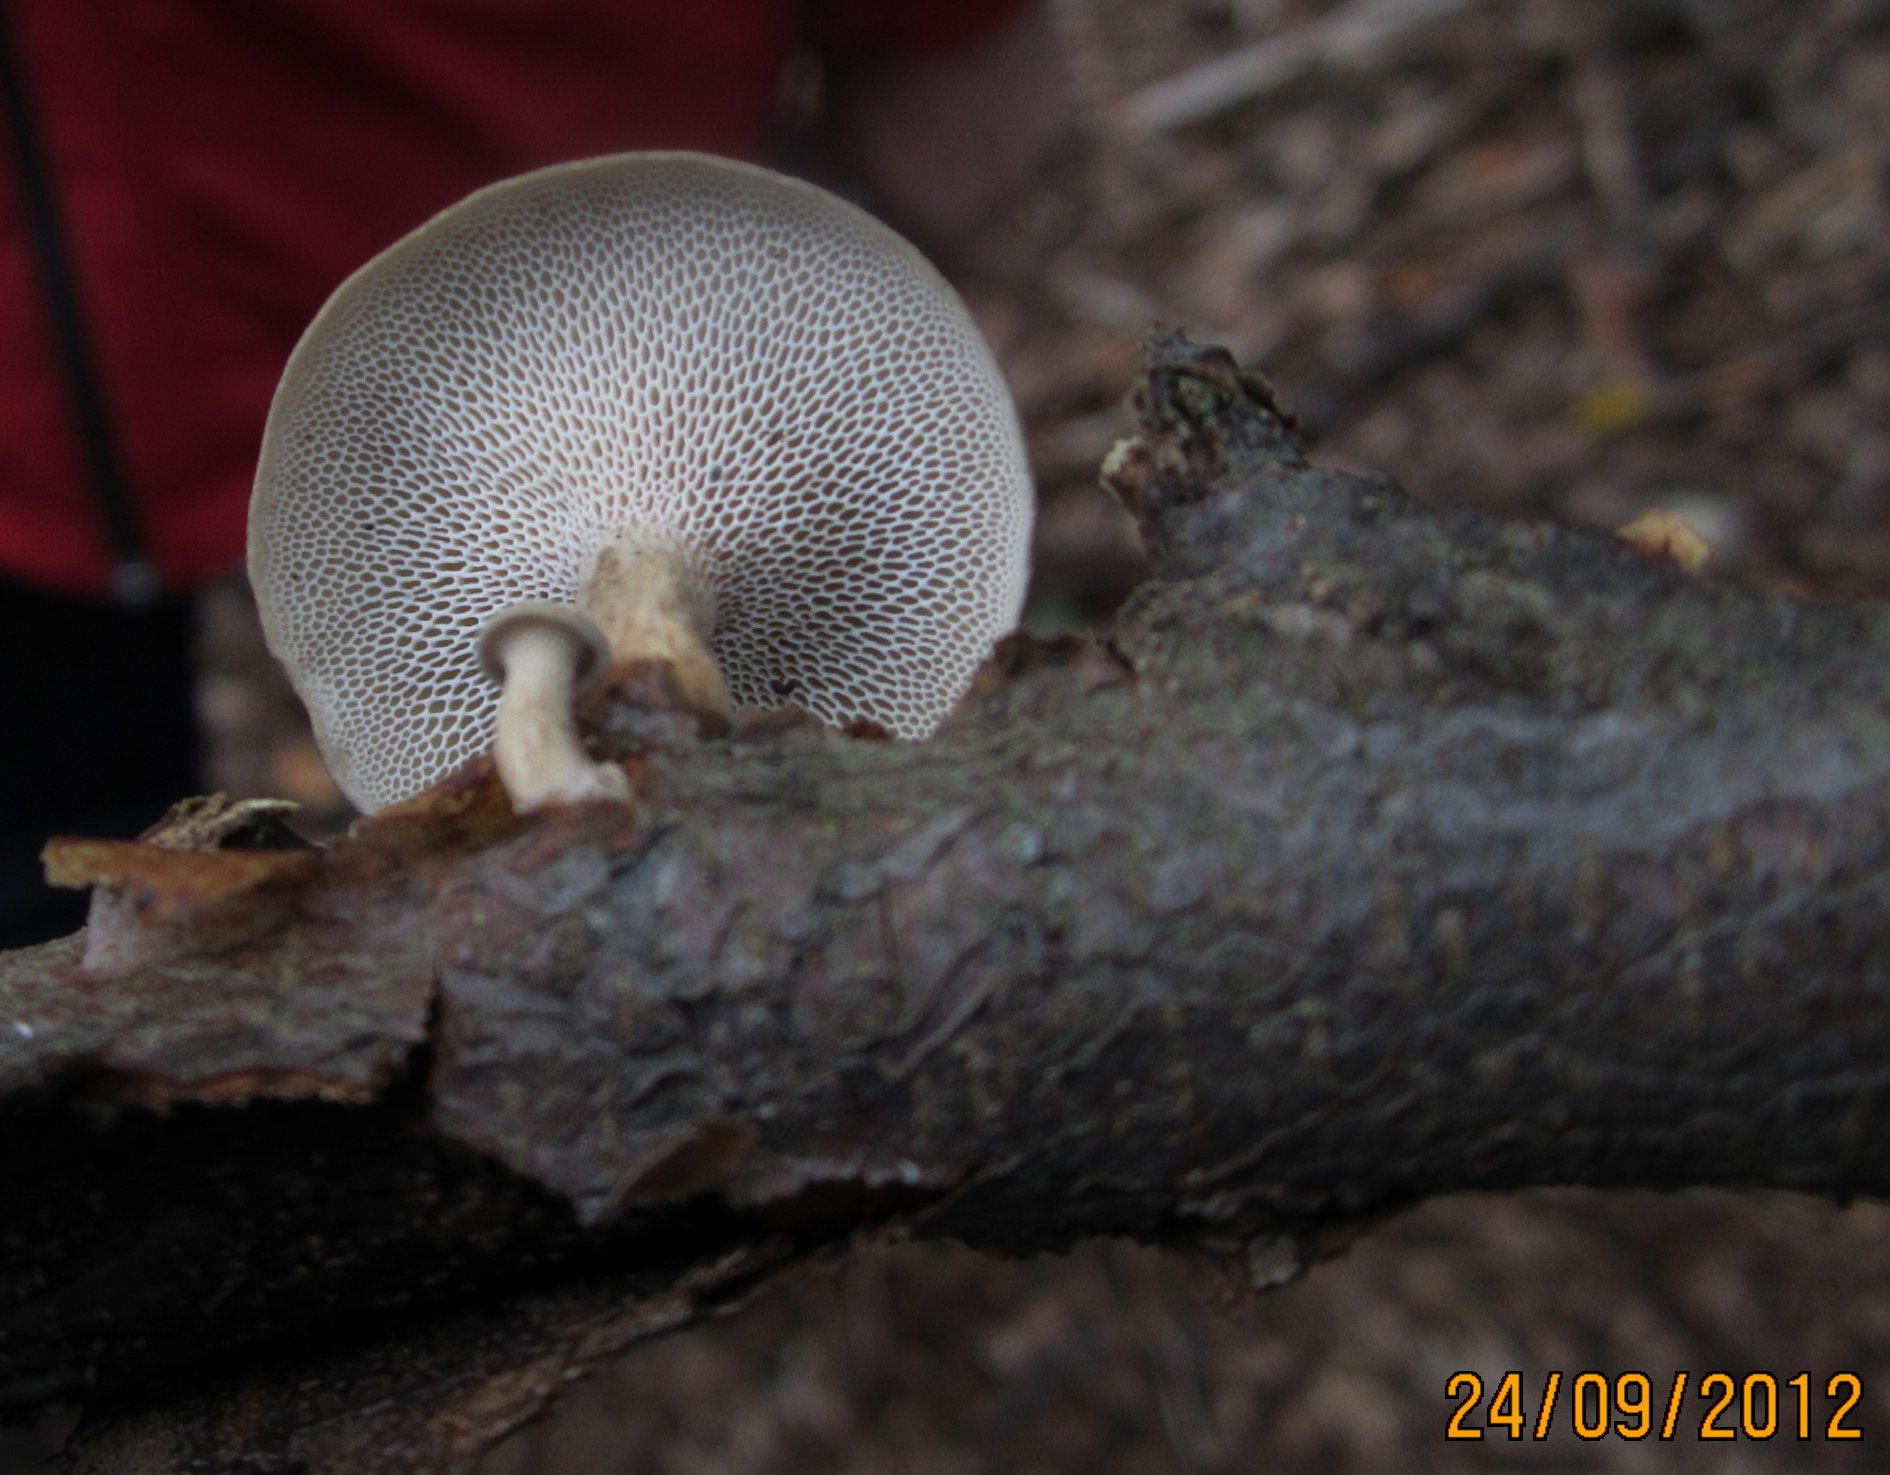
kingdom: Fungi
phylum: Basidiomycota
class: Agaricomycetes
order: Polyporales
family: Polyporaceae
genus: Lentinus
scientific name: Lentinus brumalis
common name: vinter-stilkporesvamp
